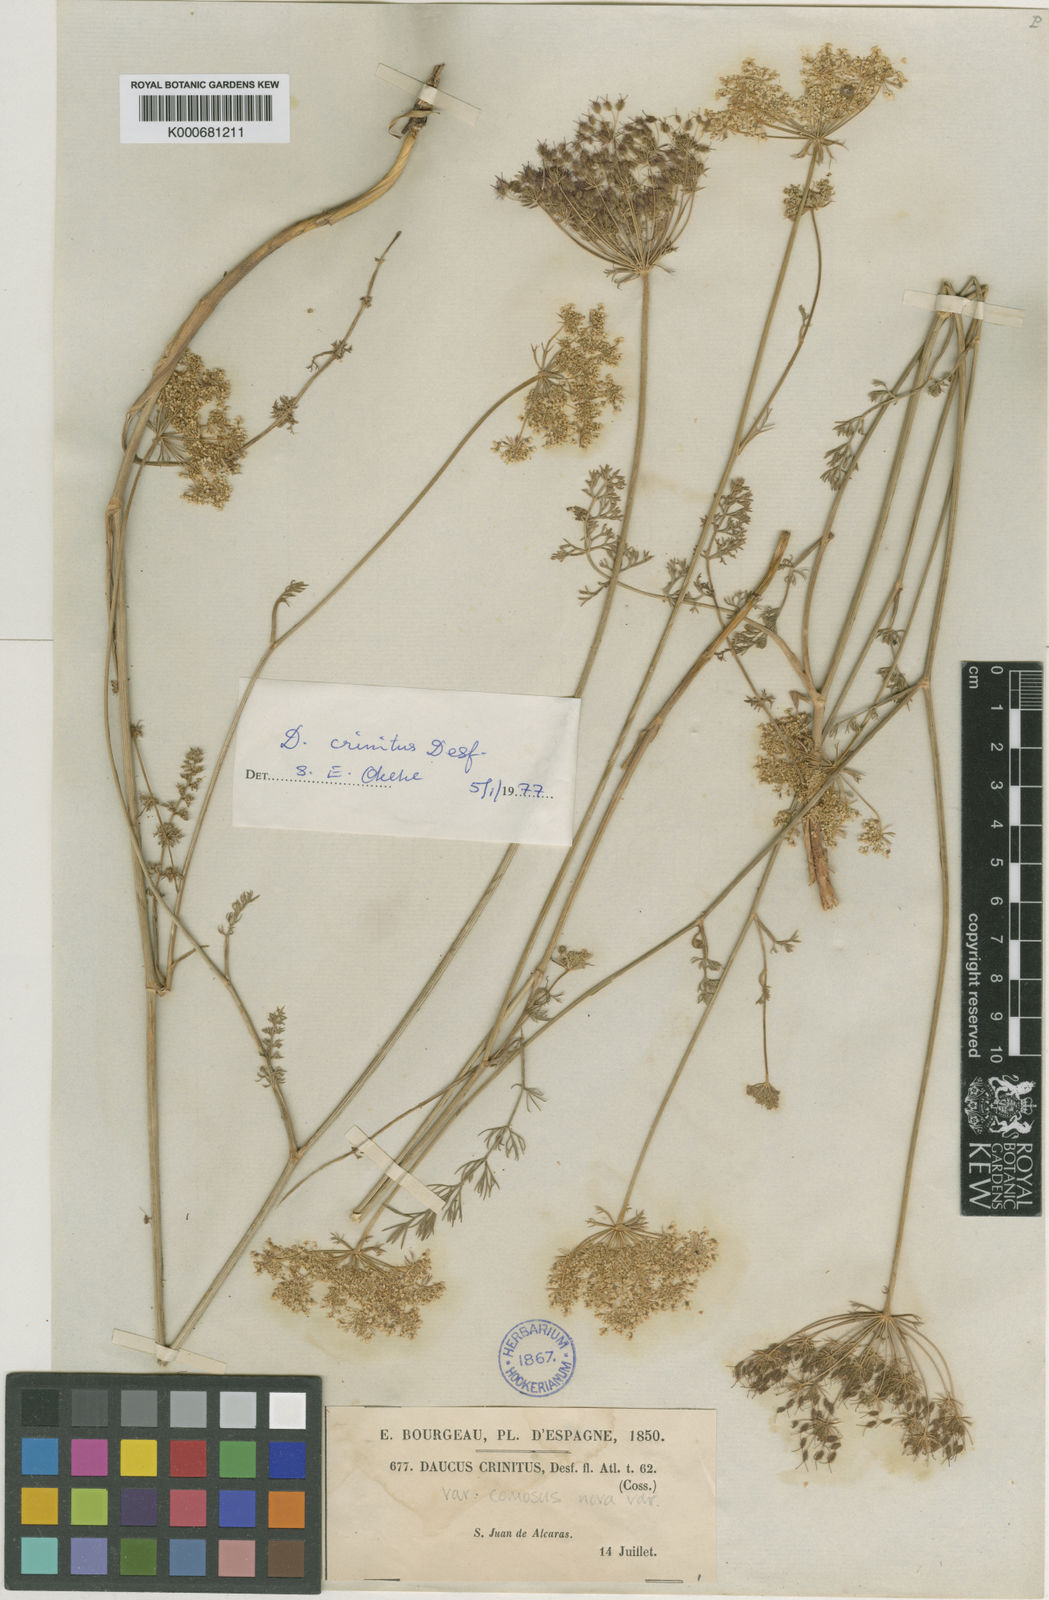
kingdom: Plantae
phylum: Tracheophyta
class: Magnoliopsida
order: Apiales
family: Apiaceae
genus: Daucus
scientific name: Daucus crinitus
